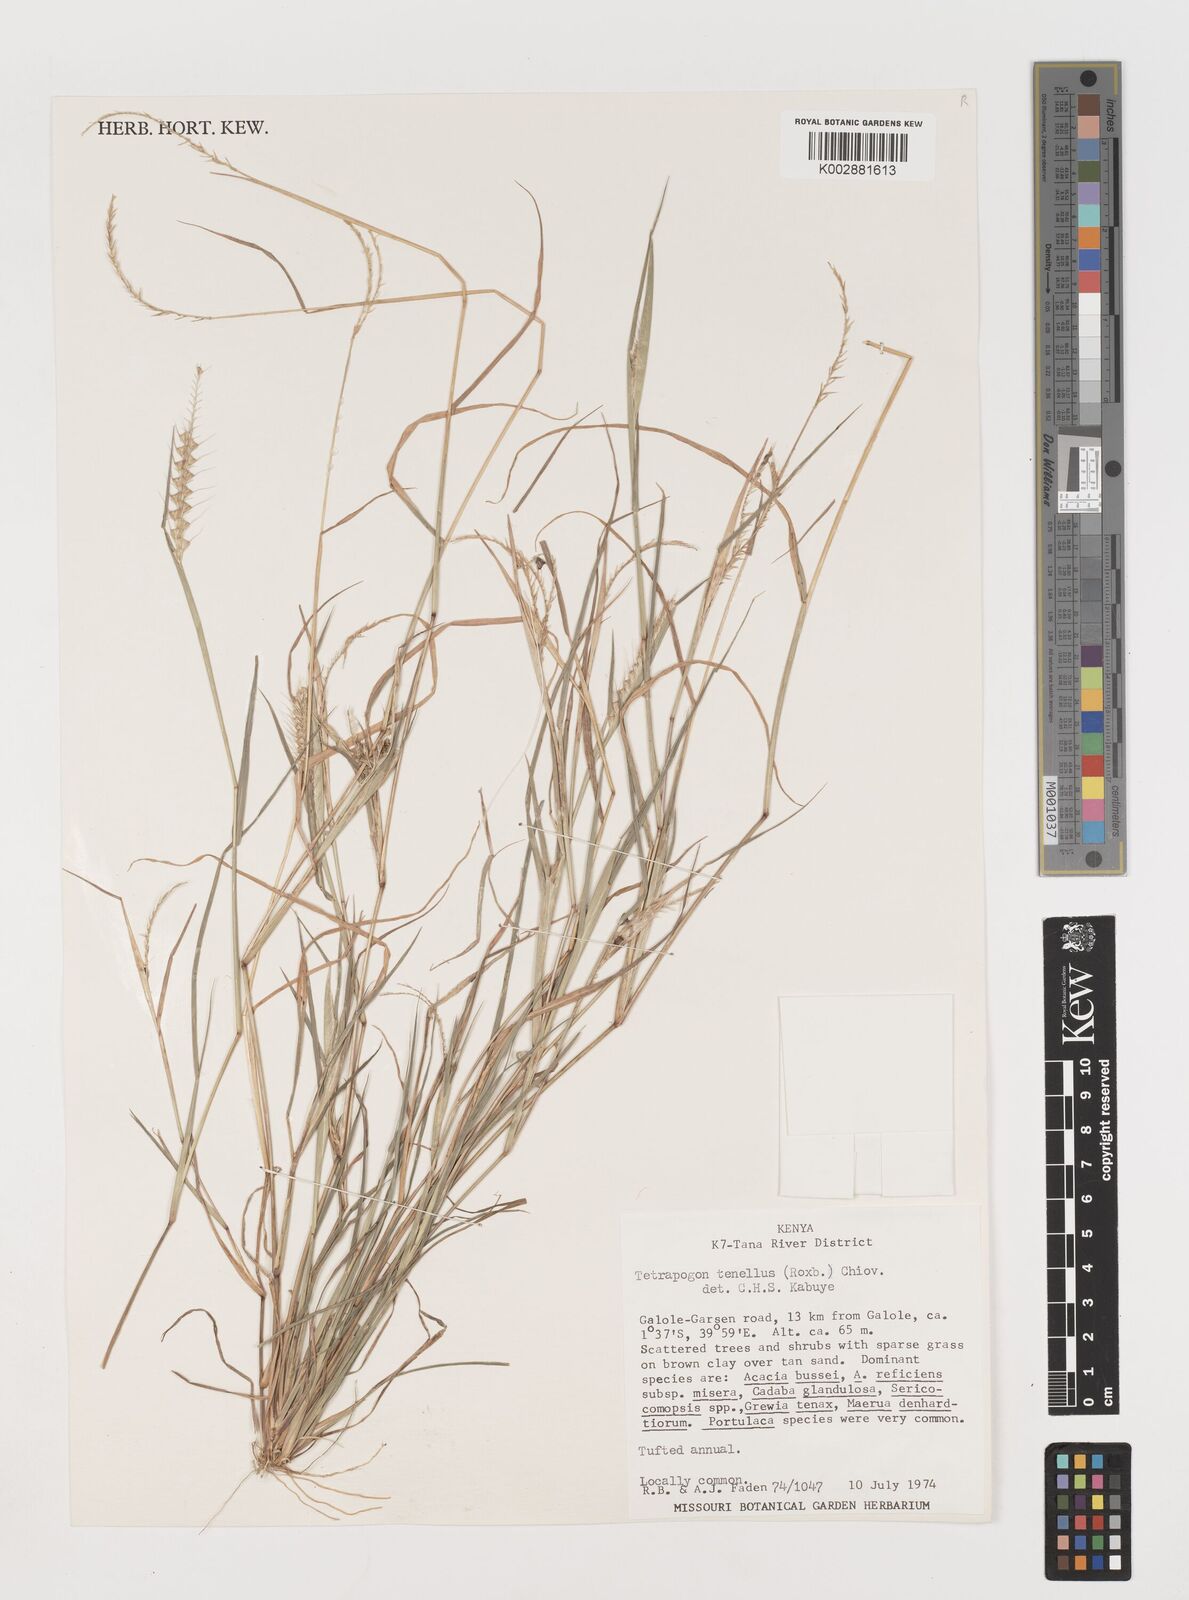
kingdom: Plantae
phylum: Tracheophyta
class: Liliopsida
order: Poales
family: Poaceae
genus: Tetrapogon
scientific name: Tetrapogon tenellus
